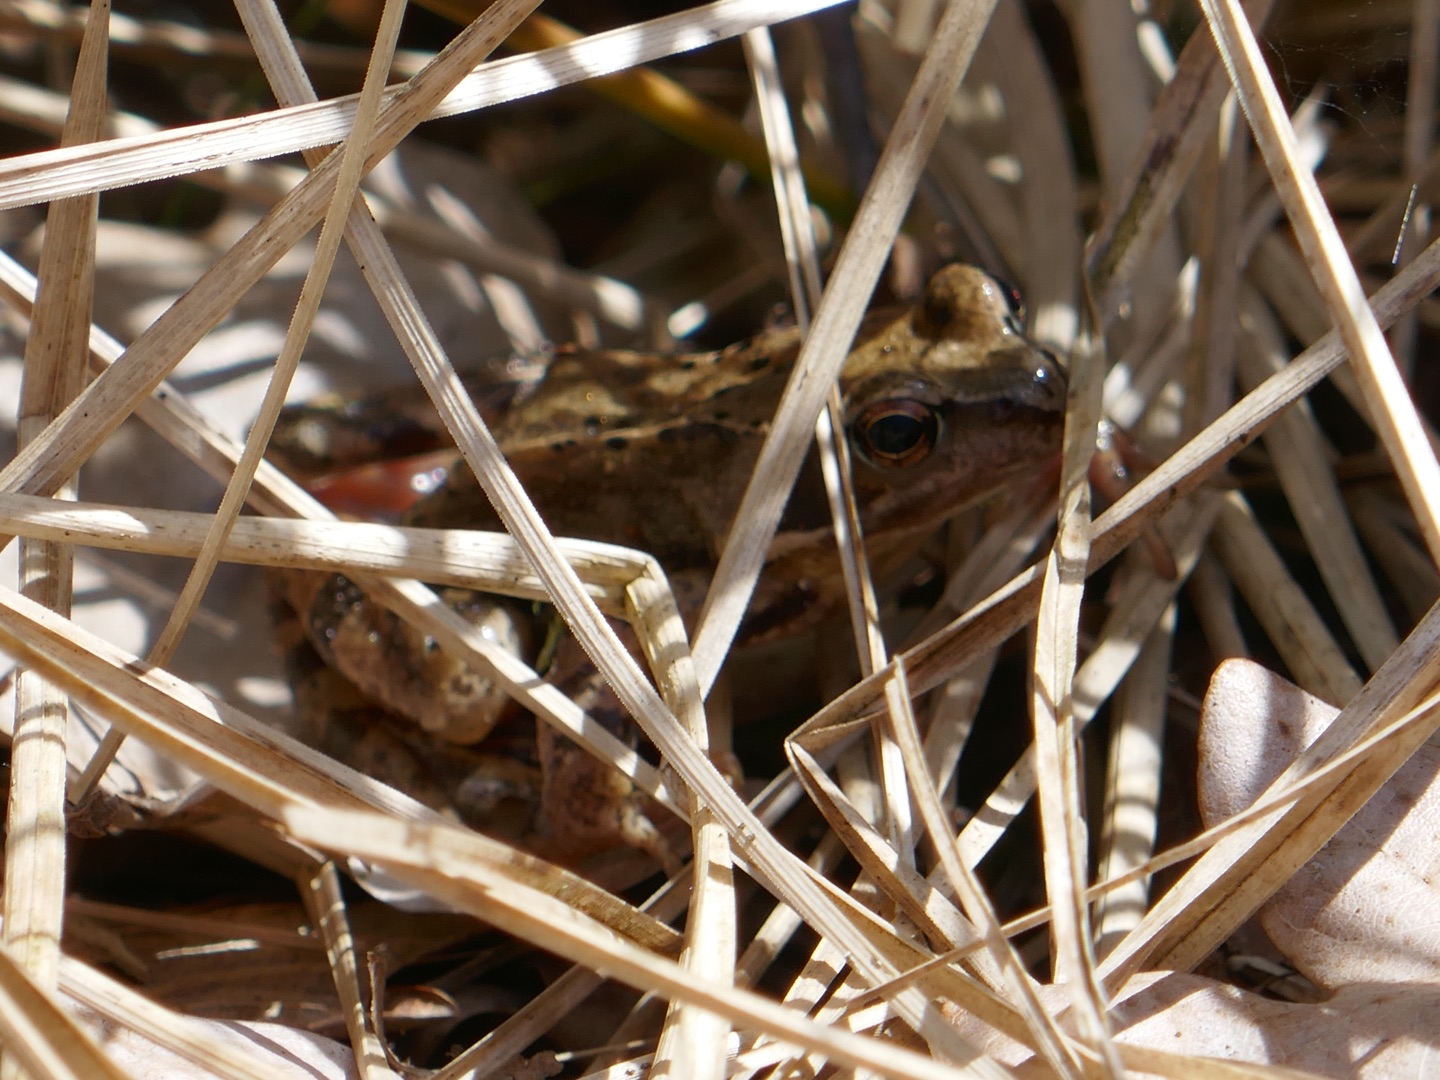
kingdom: Animalia
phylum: Chordata
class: Amphibia
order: Anura
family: Ranidae
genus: Rana
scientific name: Rana temporaria
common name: Butsnudet frø
